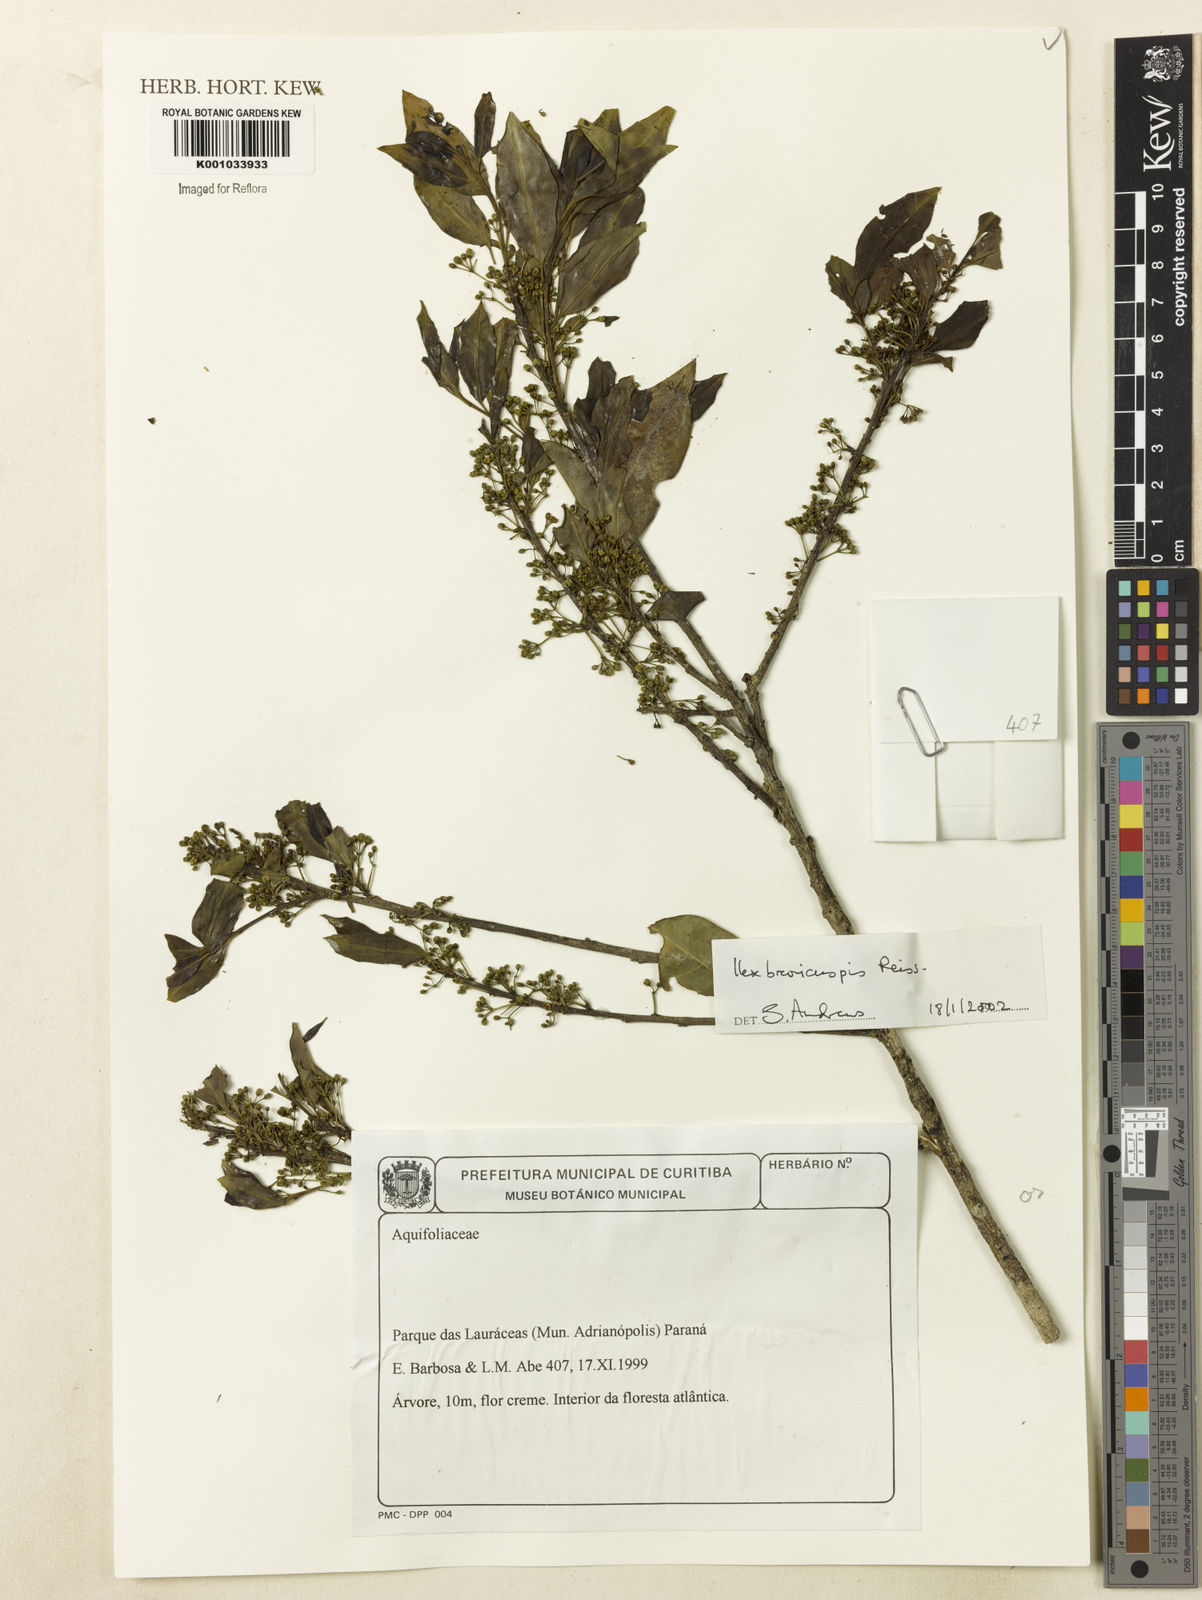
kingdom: Plantae
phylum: Tracheophyta
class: Magnoliopsida
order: Aquifoliales
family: Aquifoliaceae
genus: Ilex
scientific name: Ilex brevicuspis
